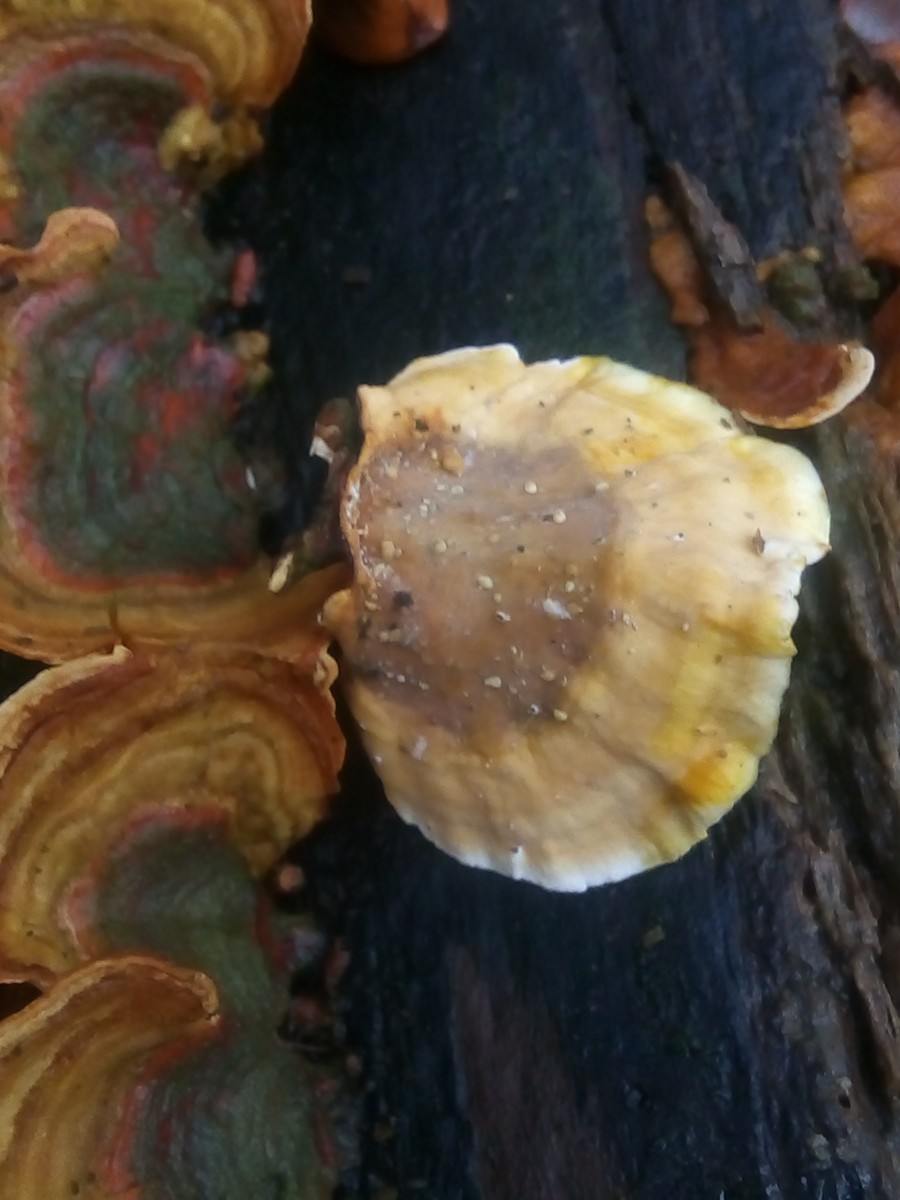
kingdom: Fungi
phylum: Basidiomycota
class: Agaricomycetes
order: Russulales
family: Stereaceae
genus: Stereum
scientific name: Stereum subtomentosum
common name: smuk lædersvamp
